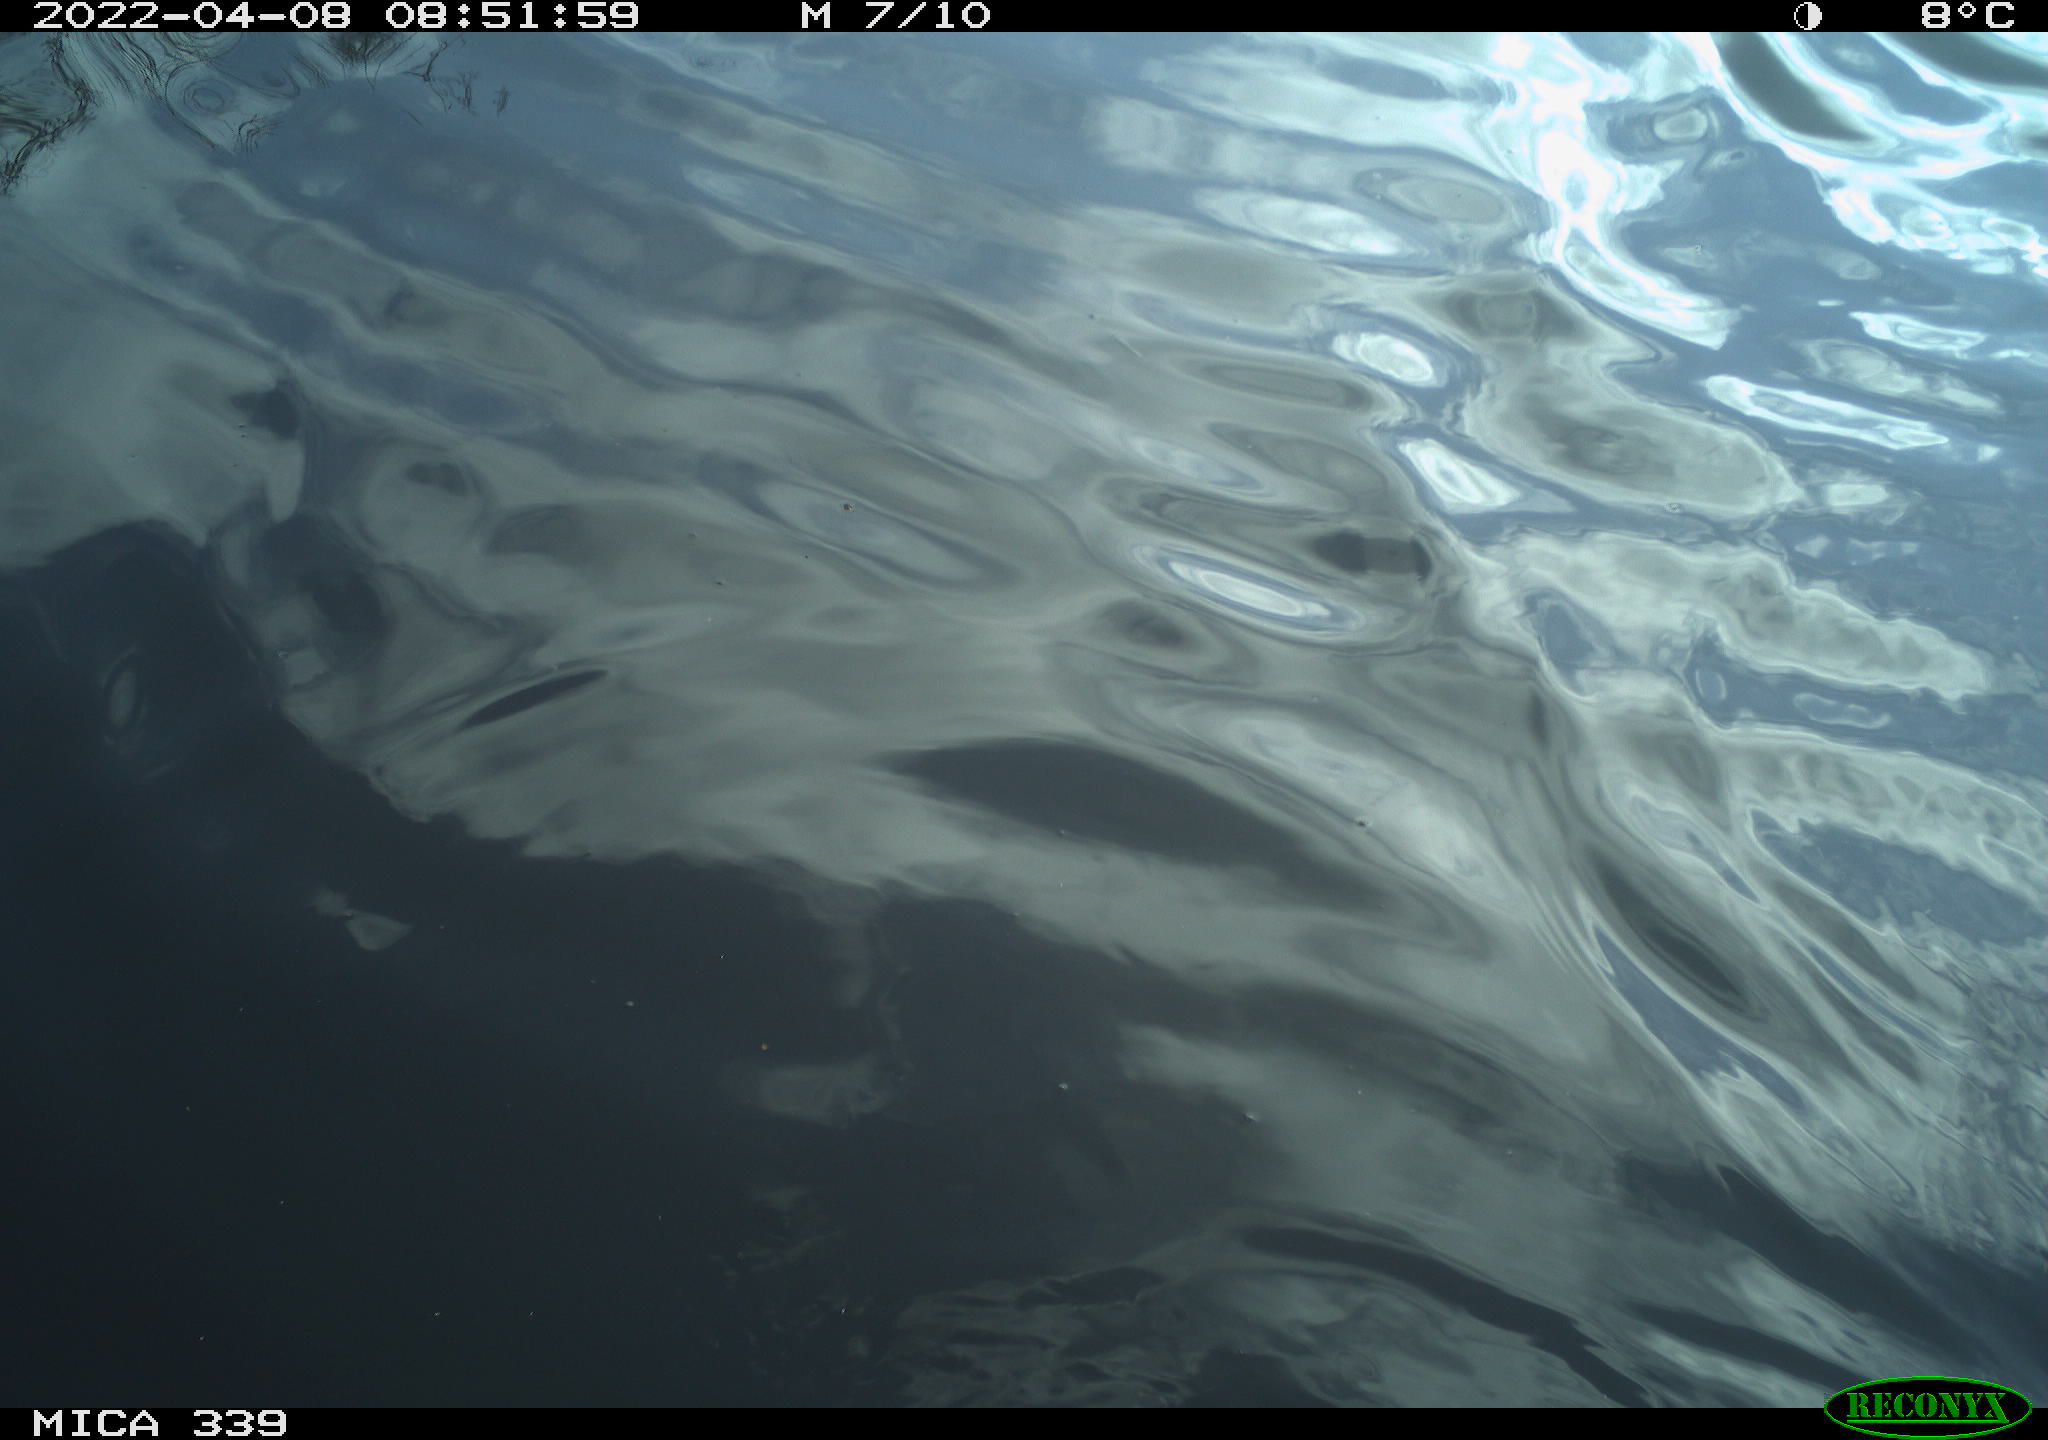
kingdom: Animalia
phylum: Chordata
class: Aves
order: Anseriformes
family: Anatidae
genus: Anas
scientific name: Anas platyrhynchos
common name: Mallard
